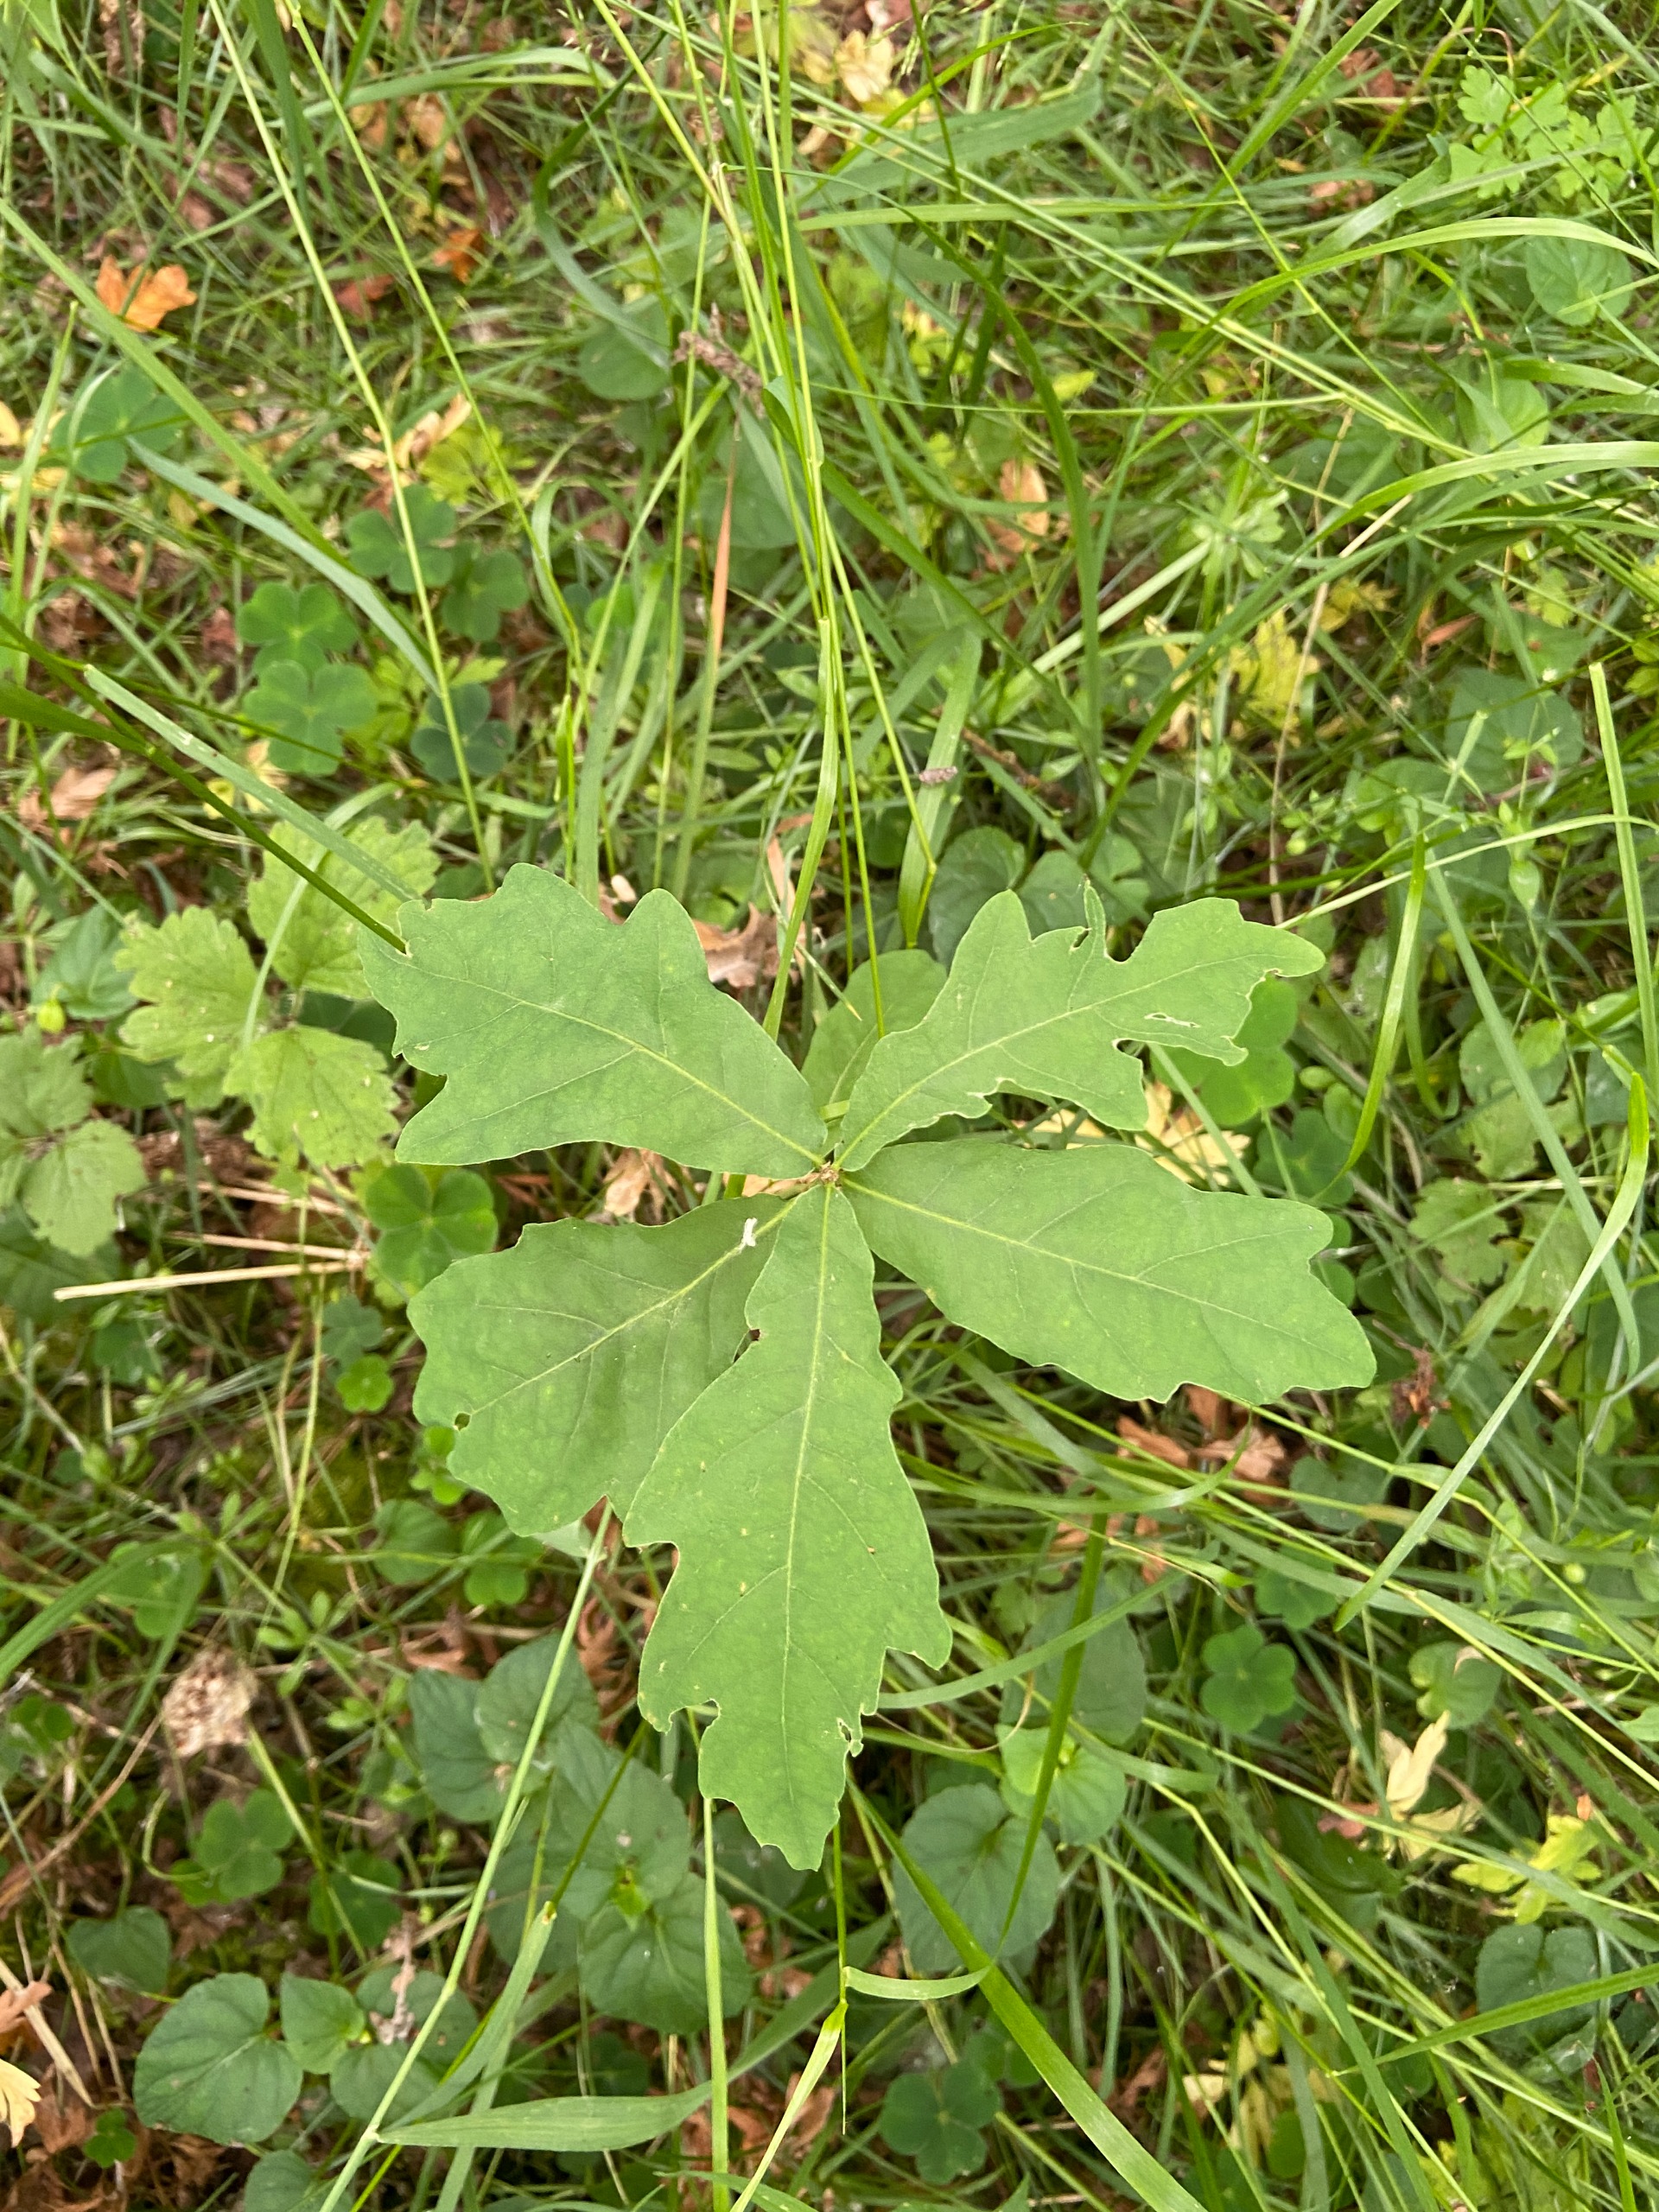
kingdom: Plantae
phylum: Tracheophyta
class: Magnoliopsida
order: Fagales
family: Fagaceae
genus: Quercus
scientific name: Quercus robur
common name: Stilk-eg/almindelig eg
